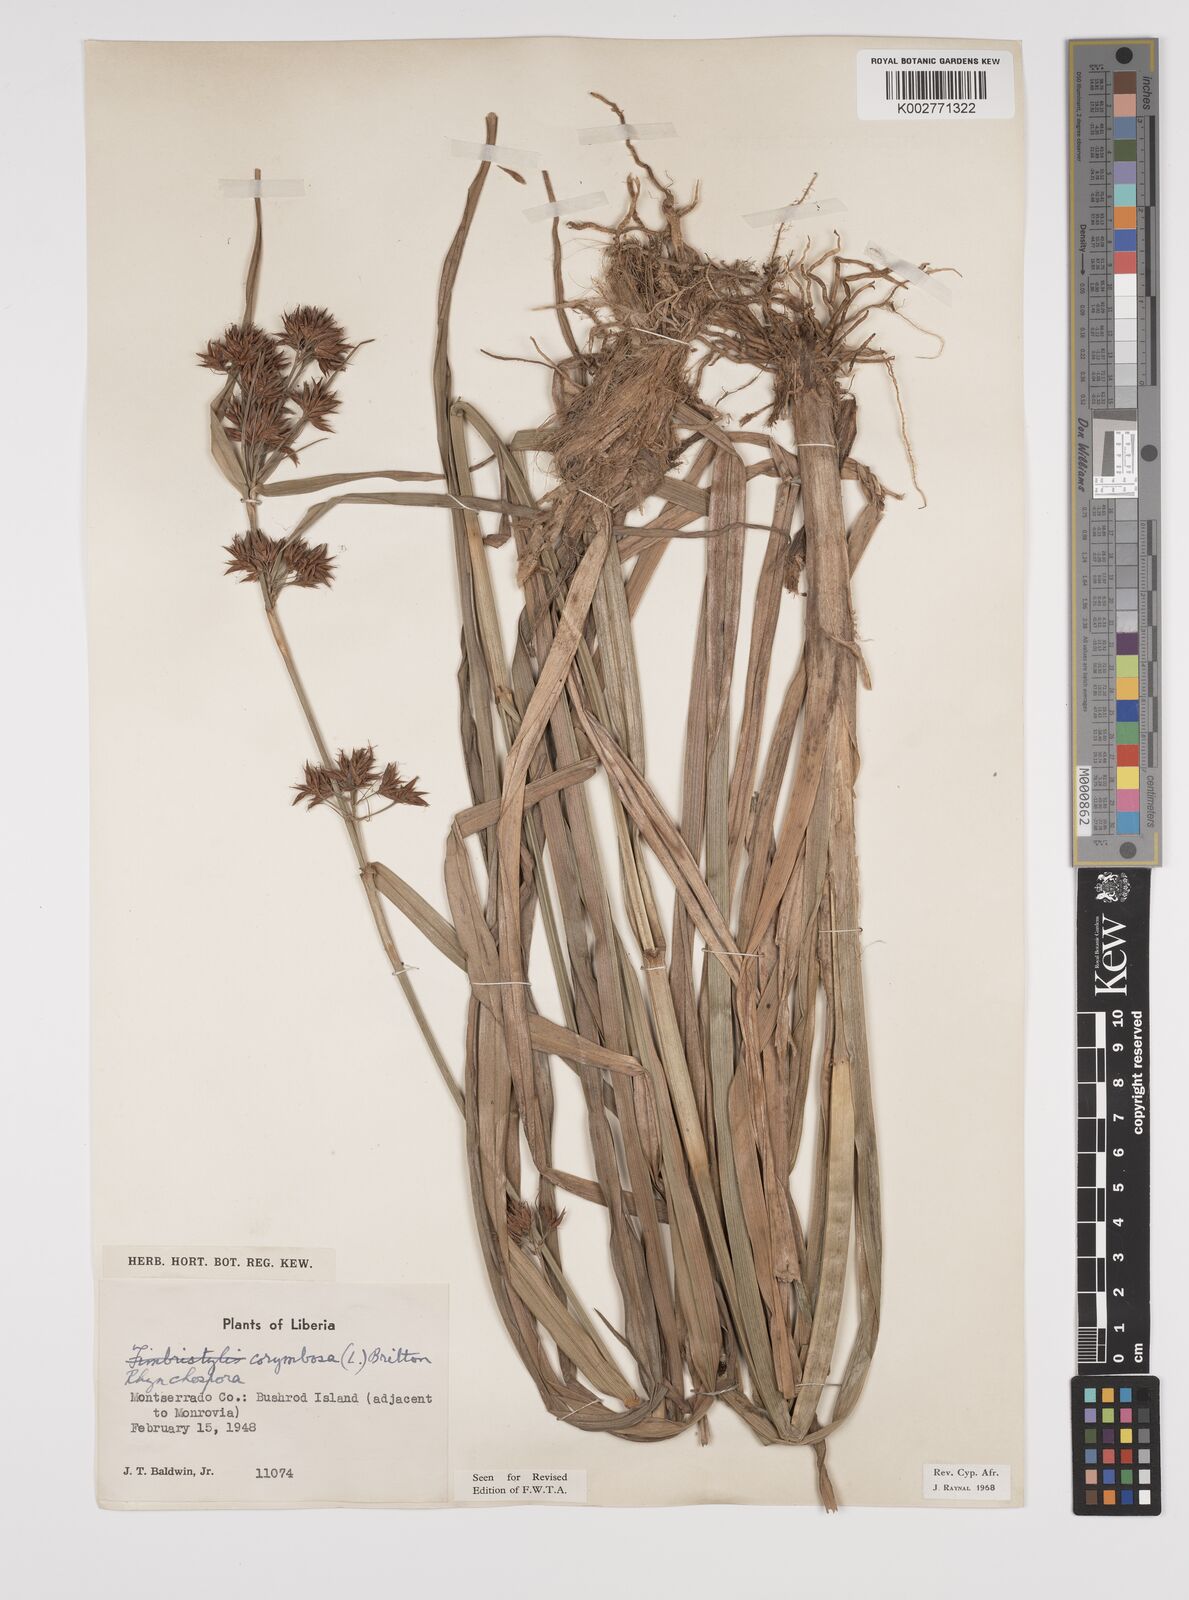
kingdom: Plantae
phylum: Tracheophyta
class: Liliopsida
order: Poales
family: Cyperaceae
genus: Rhynchospora
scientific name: Rhynchospora corymbosa
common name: Golden beak sedge
